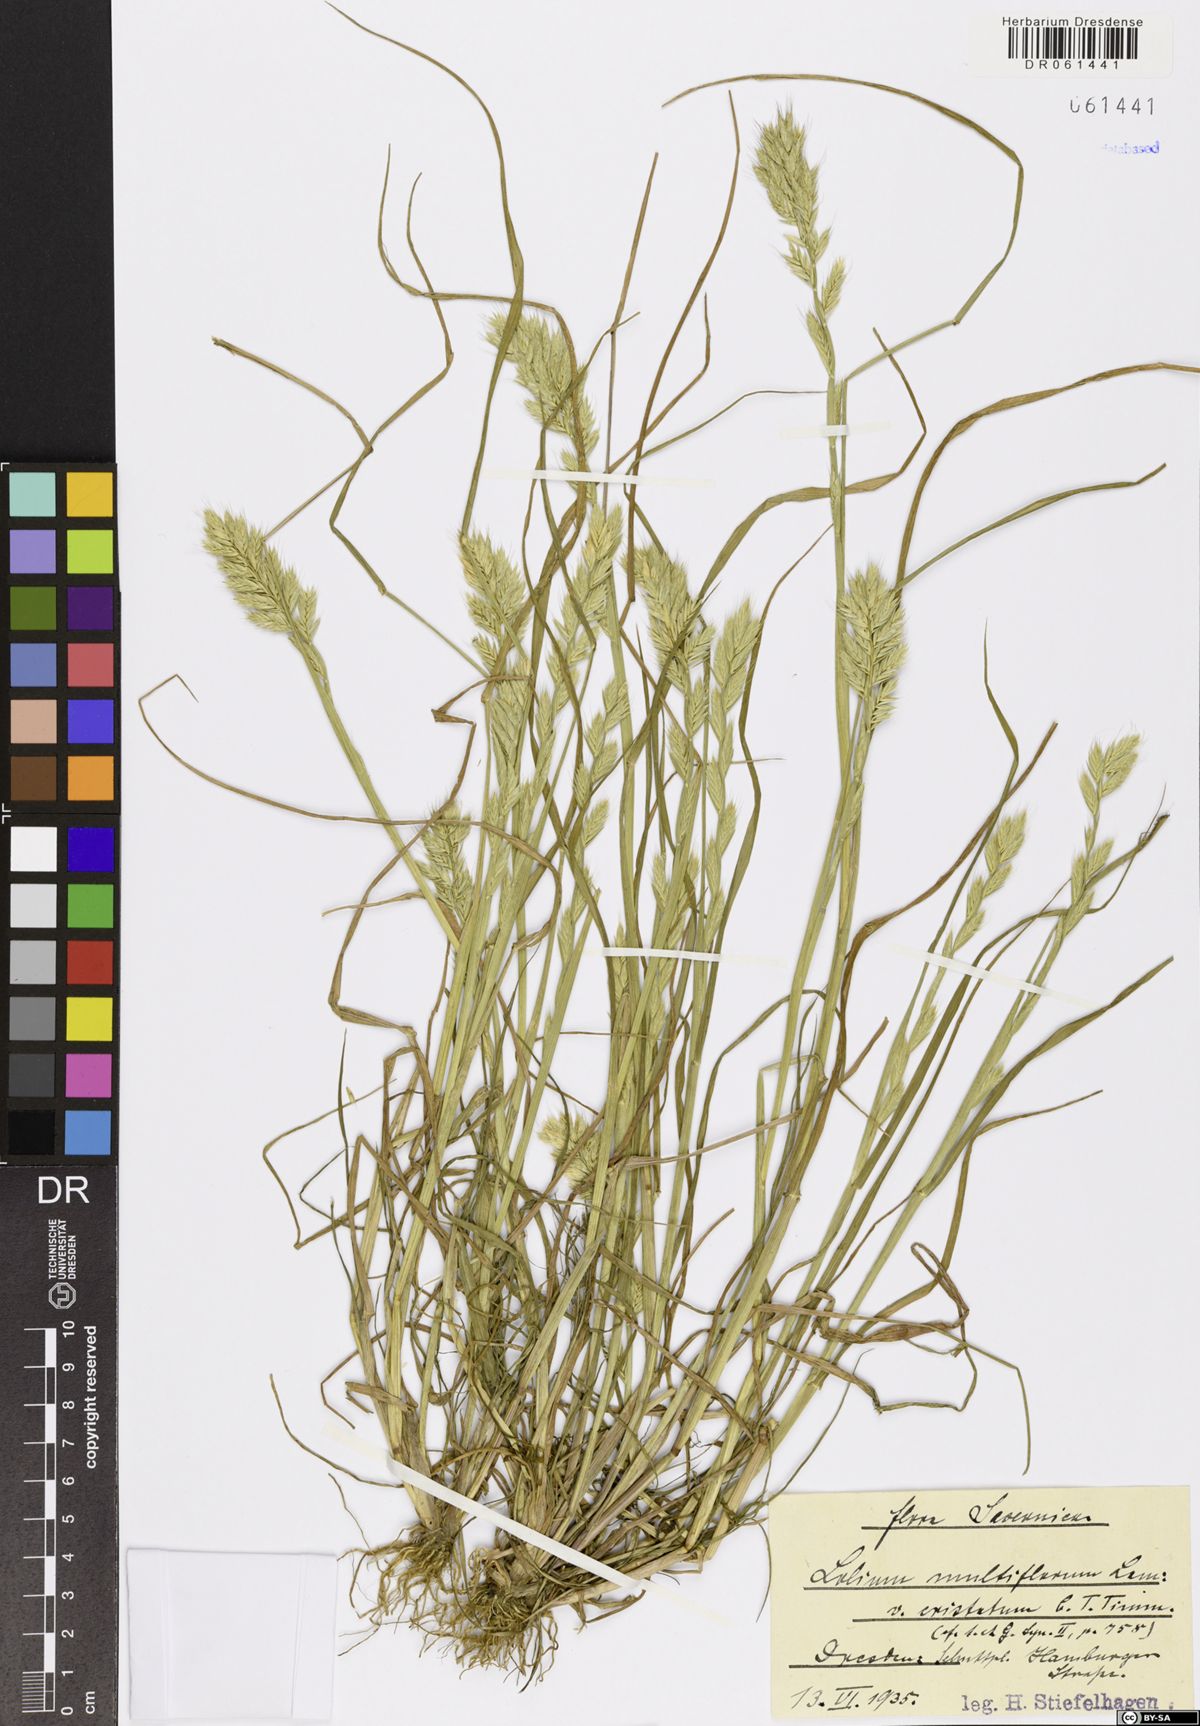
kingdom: Plantae
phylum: Tracheophyta
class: Liliopsida
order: Poales
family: Poaceae
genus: Lolium
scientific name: Lolium multiflorum
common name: Annual ryegrass
